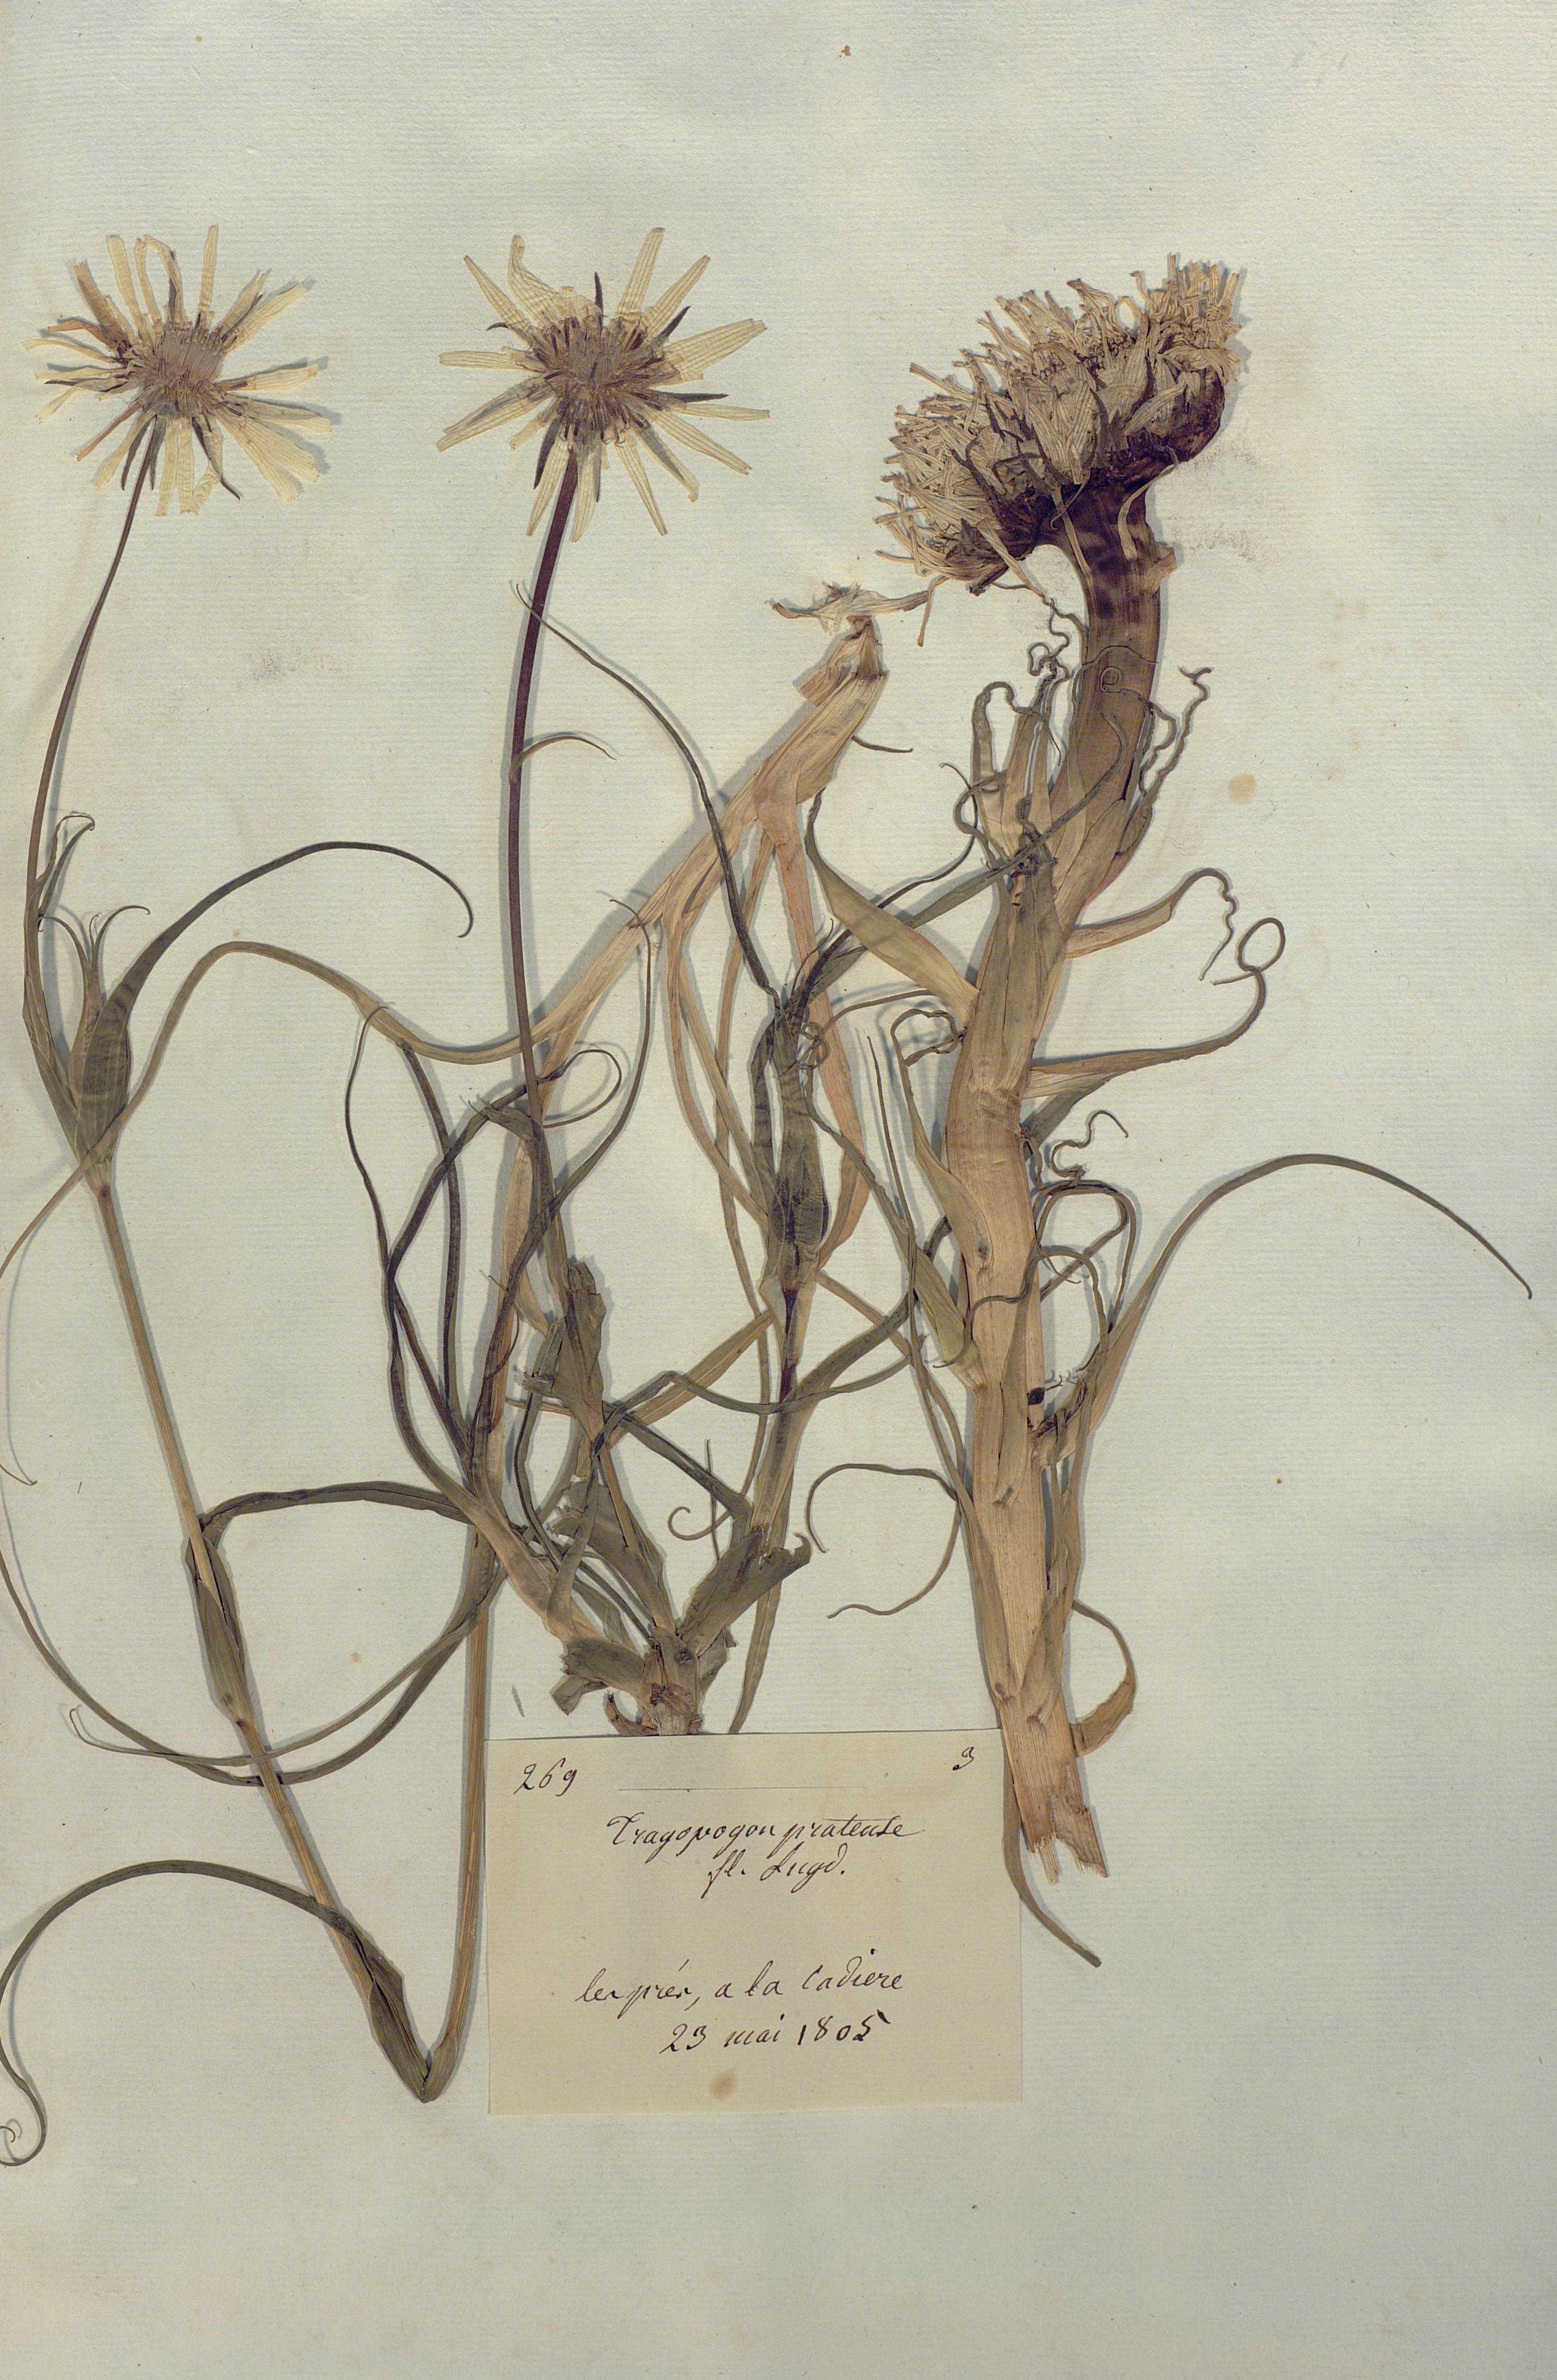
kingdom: Plantae
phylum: Tracheophyta
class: Magnoliopsida
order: Asterales
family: Asteraceae
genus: Tragopogon
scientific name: Tragopogon pratensis
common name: Goat's-beard
